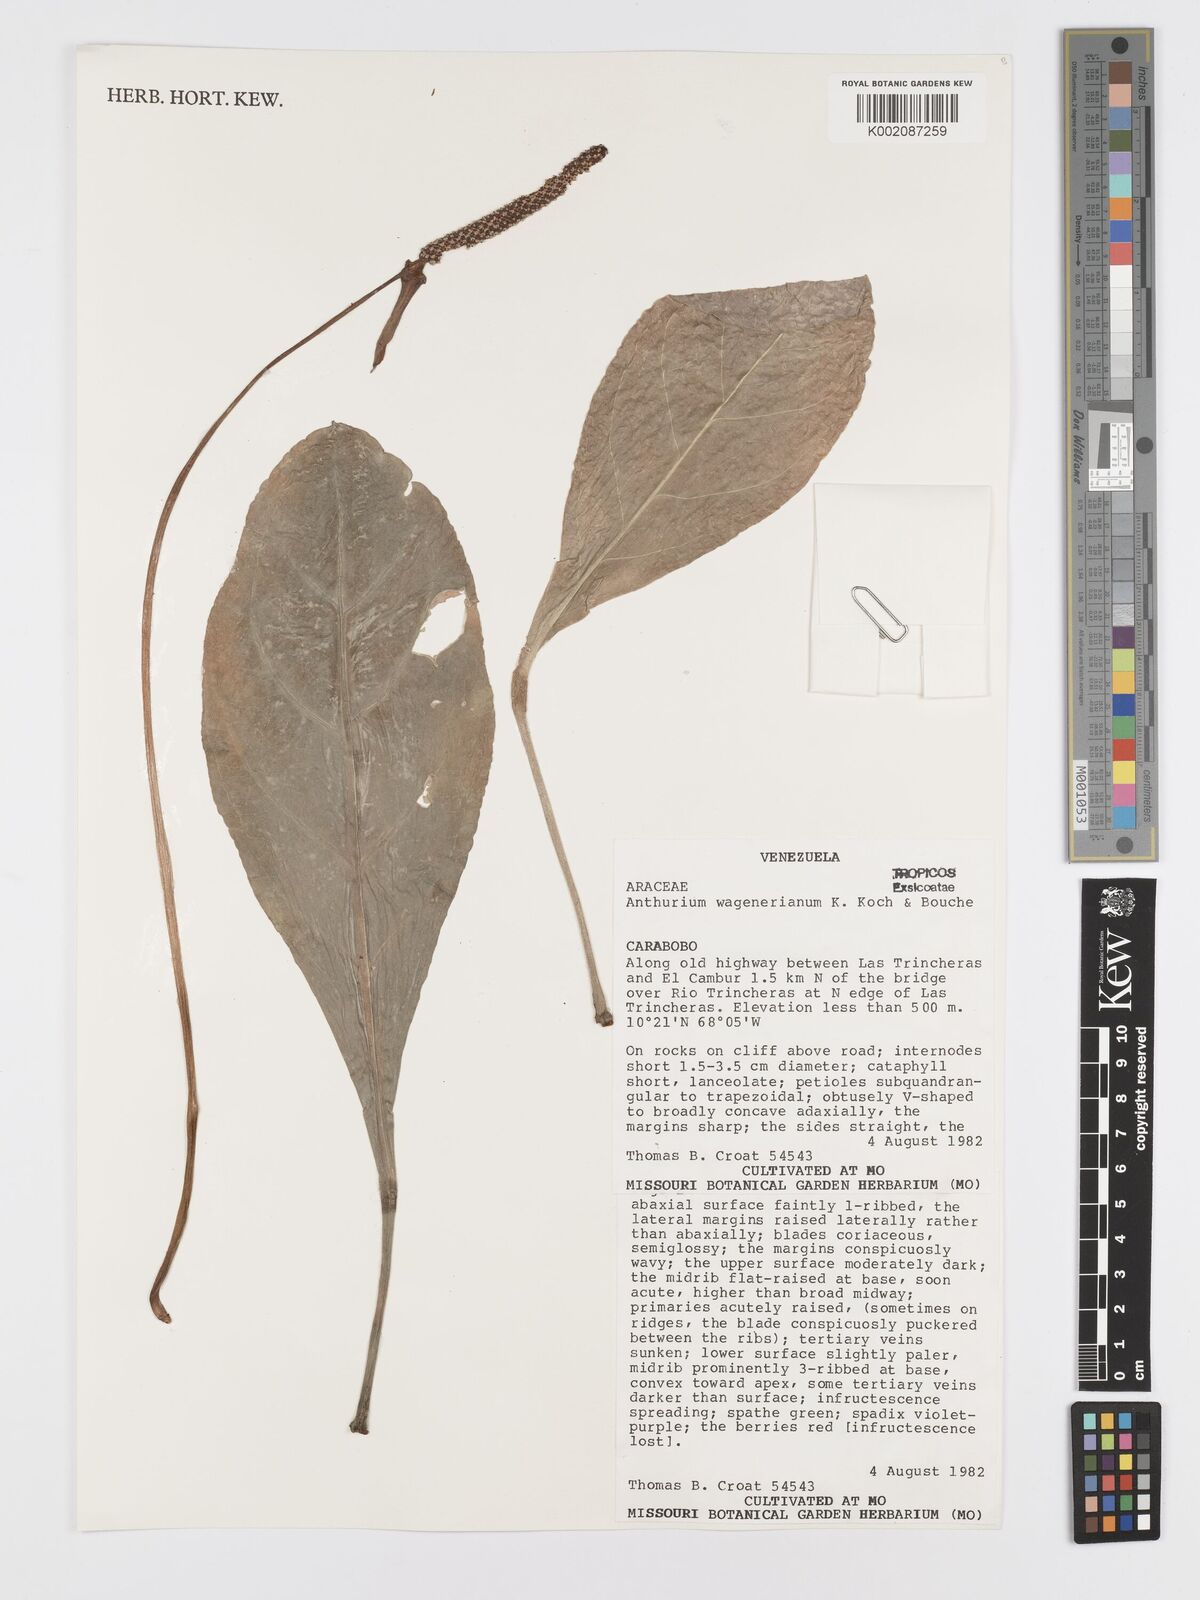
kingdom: Plantae
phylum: Tracheophyta
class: Liliopsida
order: Alismatales
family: Araceae
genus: Anthurium
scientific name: Anthurium wagenerianum
